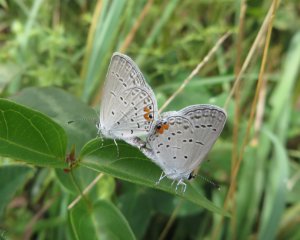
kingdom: Animalia
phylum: Arthropoda
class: Insecta
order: Lepidoptera
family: Lycaenidae
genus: Elkalyce
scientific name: Elkalyce comyntas
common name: Eastern Tailed-Blue
